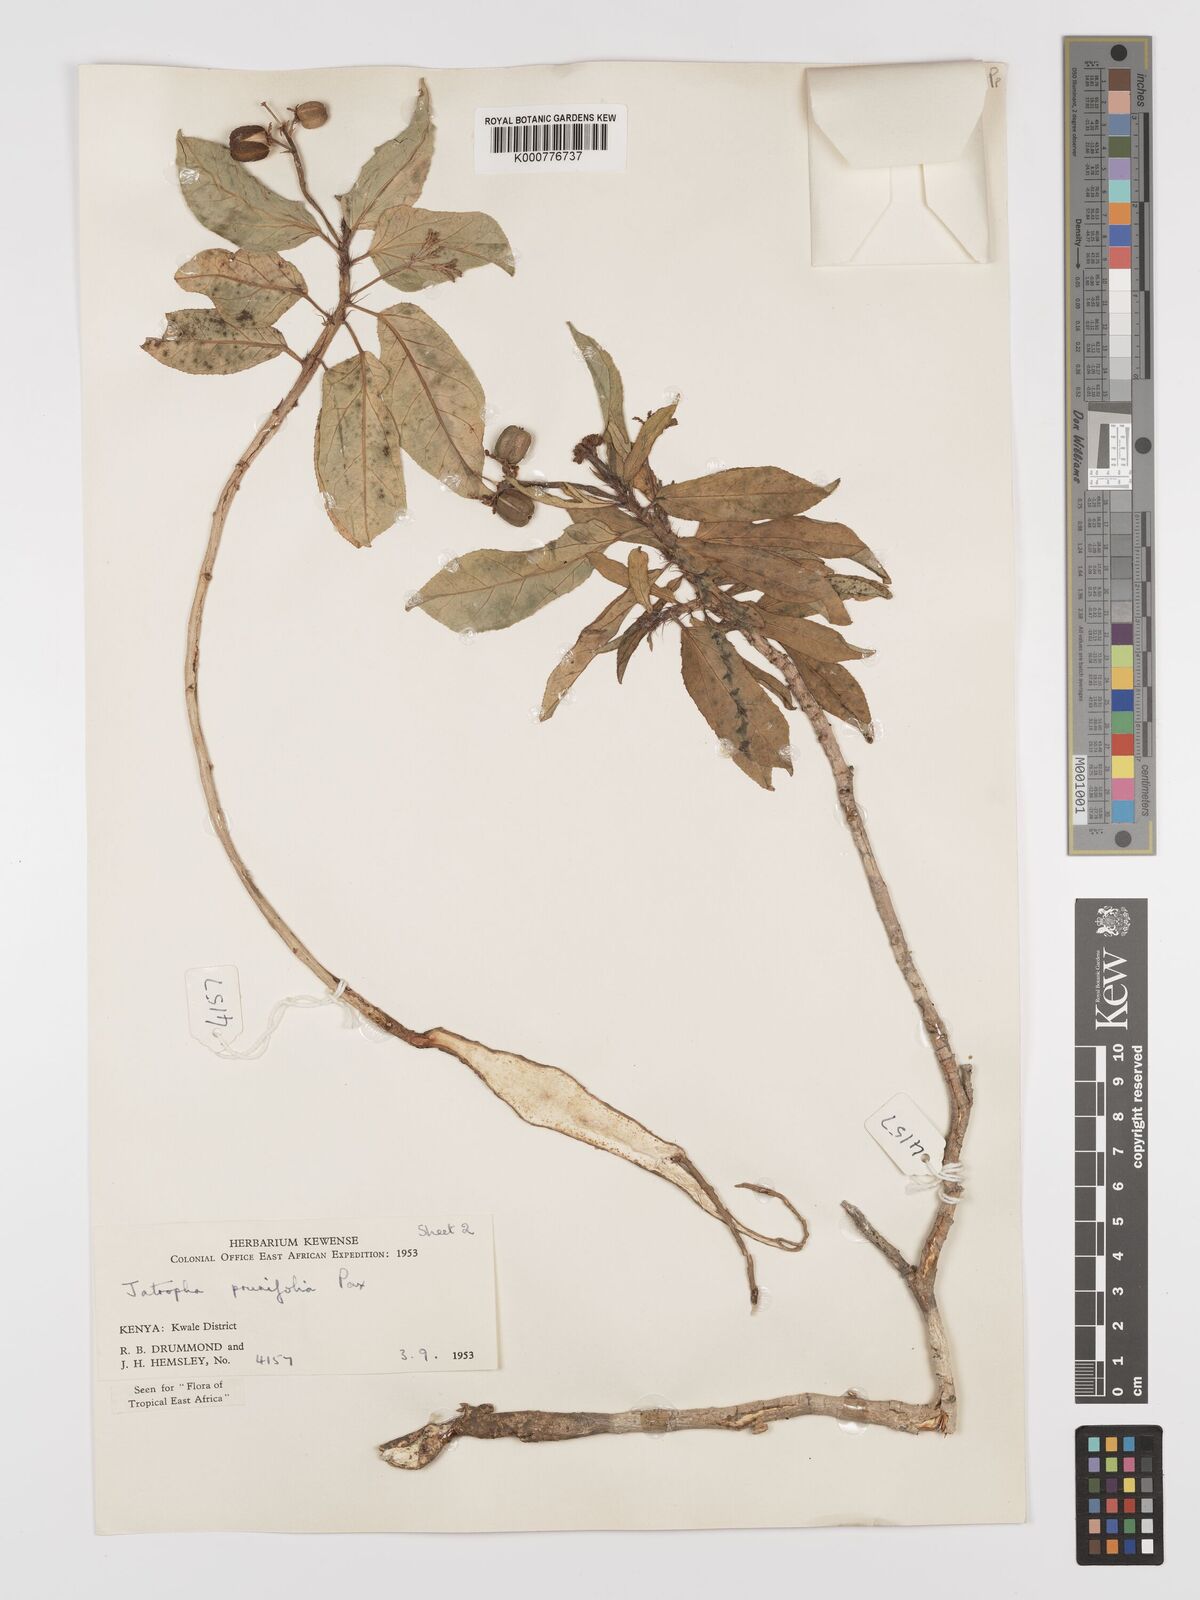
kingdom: Plantae
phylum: Tracheophyta
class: Magnoliopsida
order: Malpighiales
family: Euphorbiaceae
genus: Jatropha
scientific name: Jatropha
